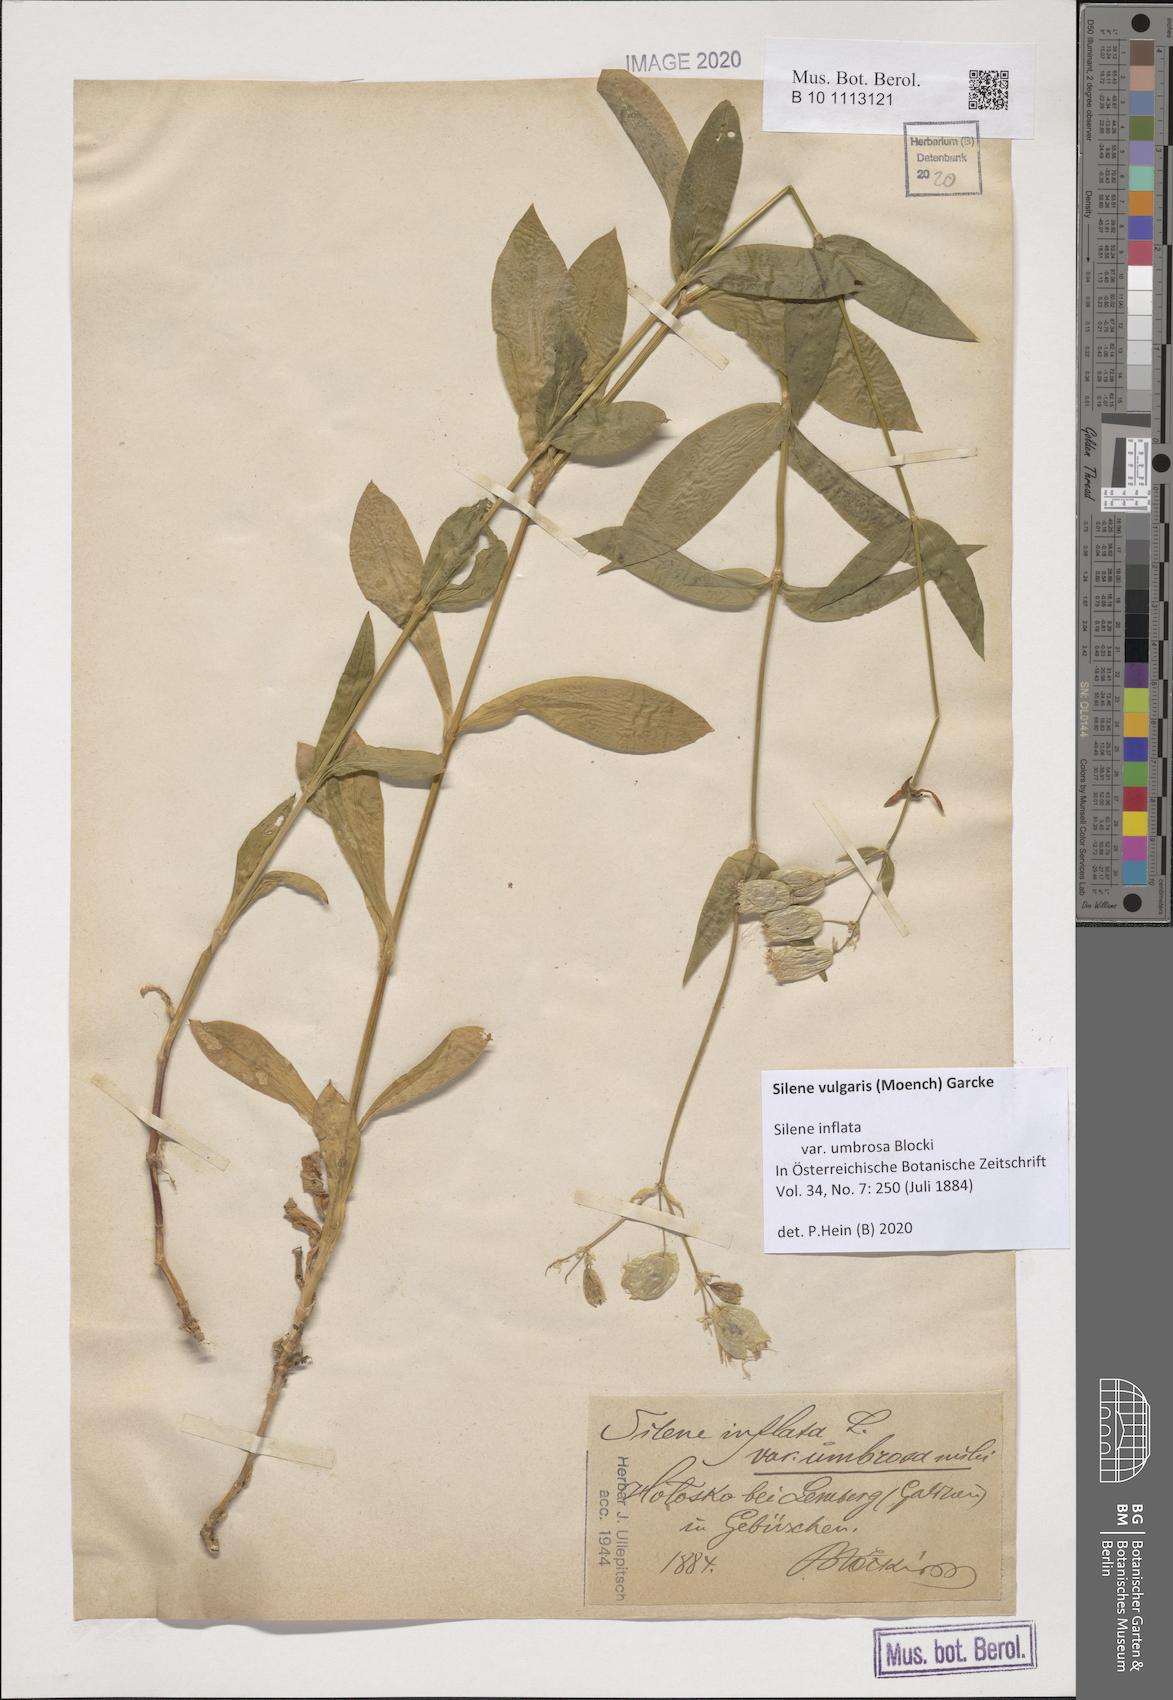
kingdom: Plantae
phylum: Tracheophyta
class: Magnoliopsida
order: Caryophyllales
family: Caryophyllaceae
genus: Silene
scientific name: Silene vulgaris
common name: Bladder campion
